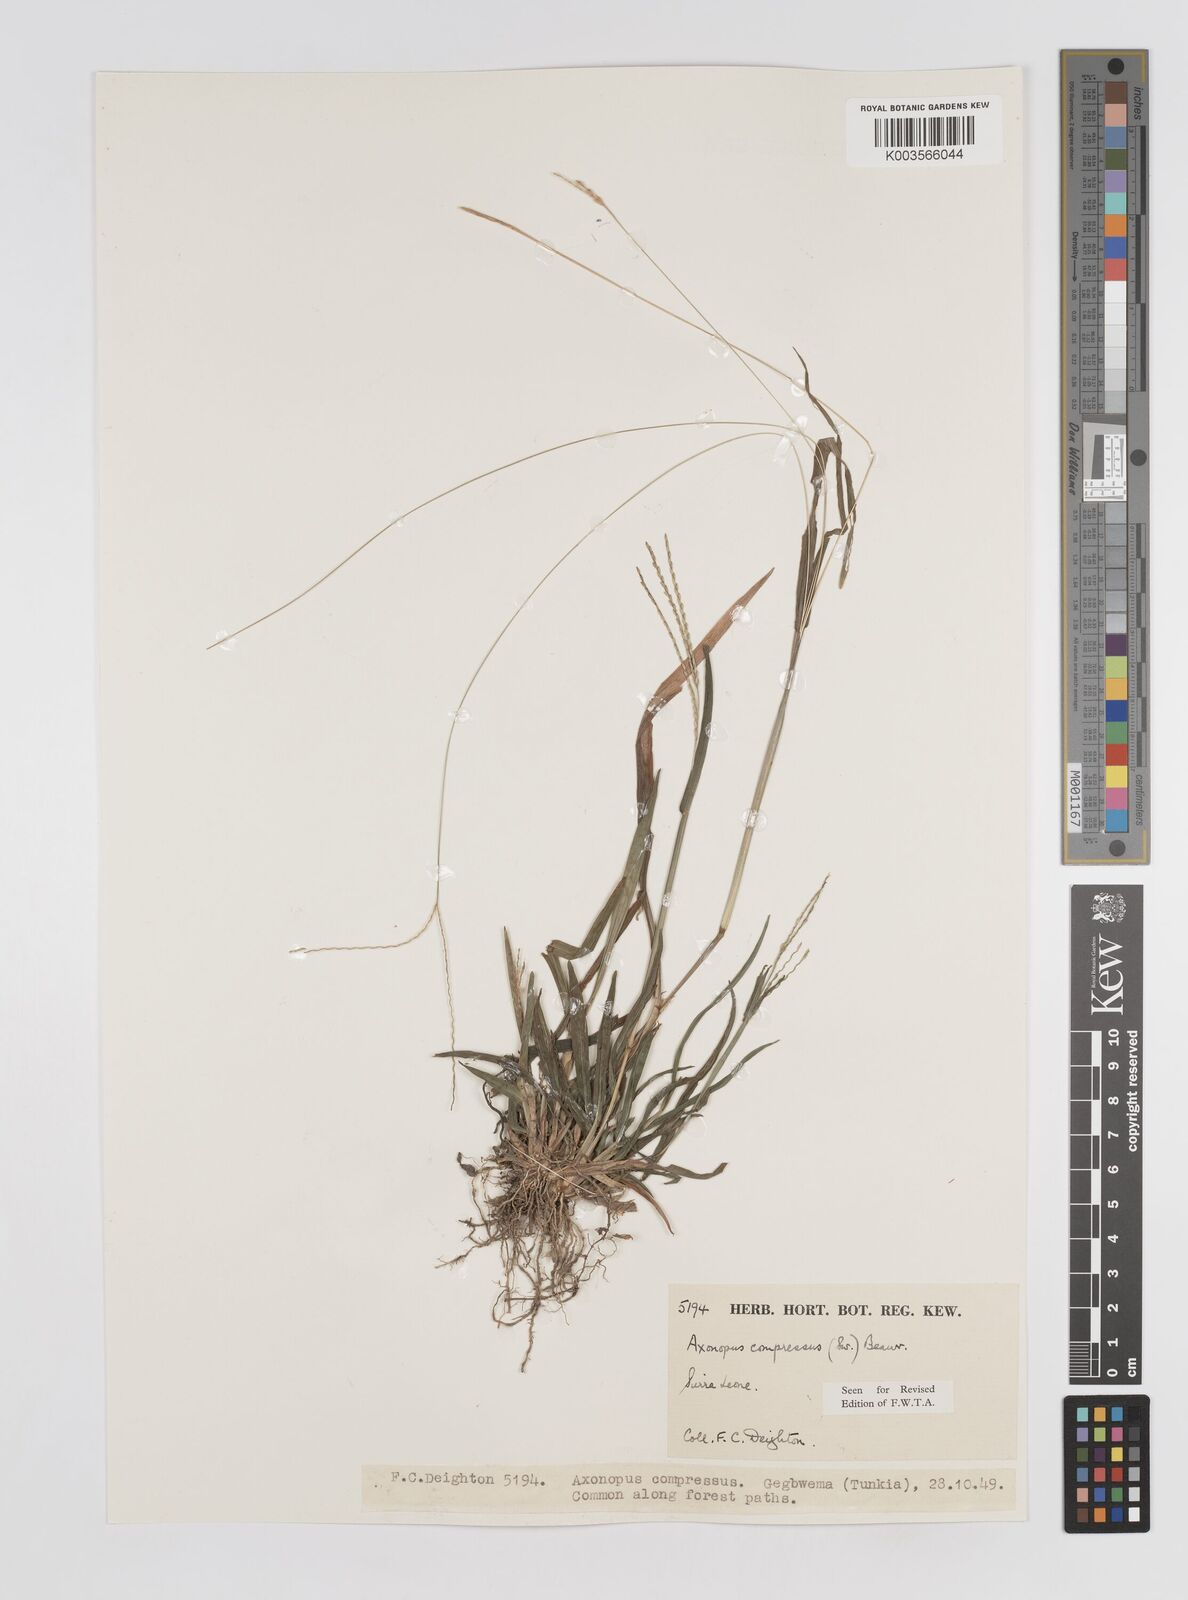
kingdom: Plantae
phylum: Tracheophyta
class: Liliopsida
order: Poales
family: Poaceae
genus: Axonopus
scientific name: Axonopus compressus
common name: American carpet grass
